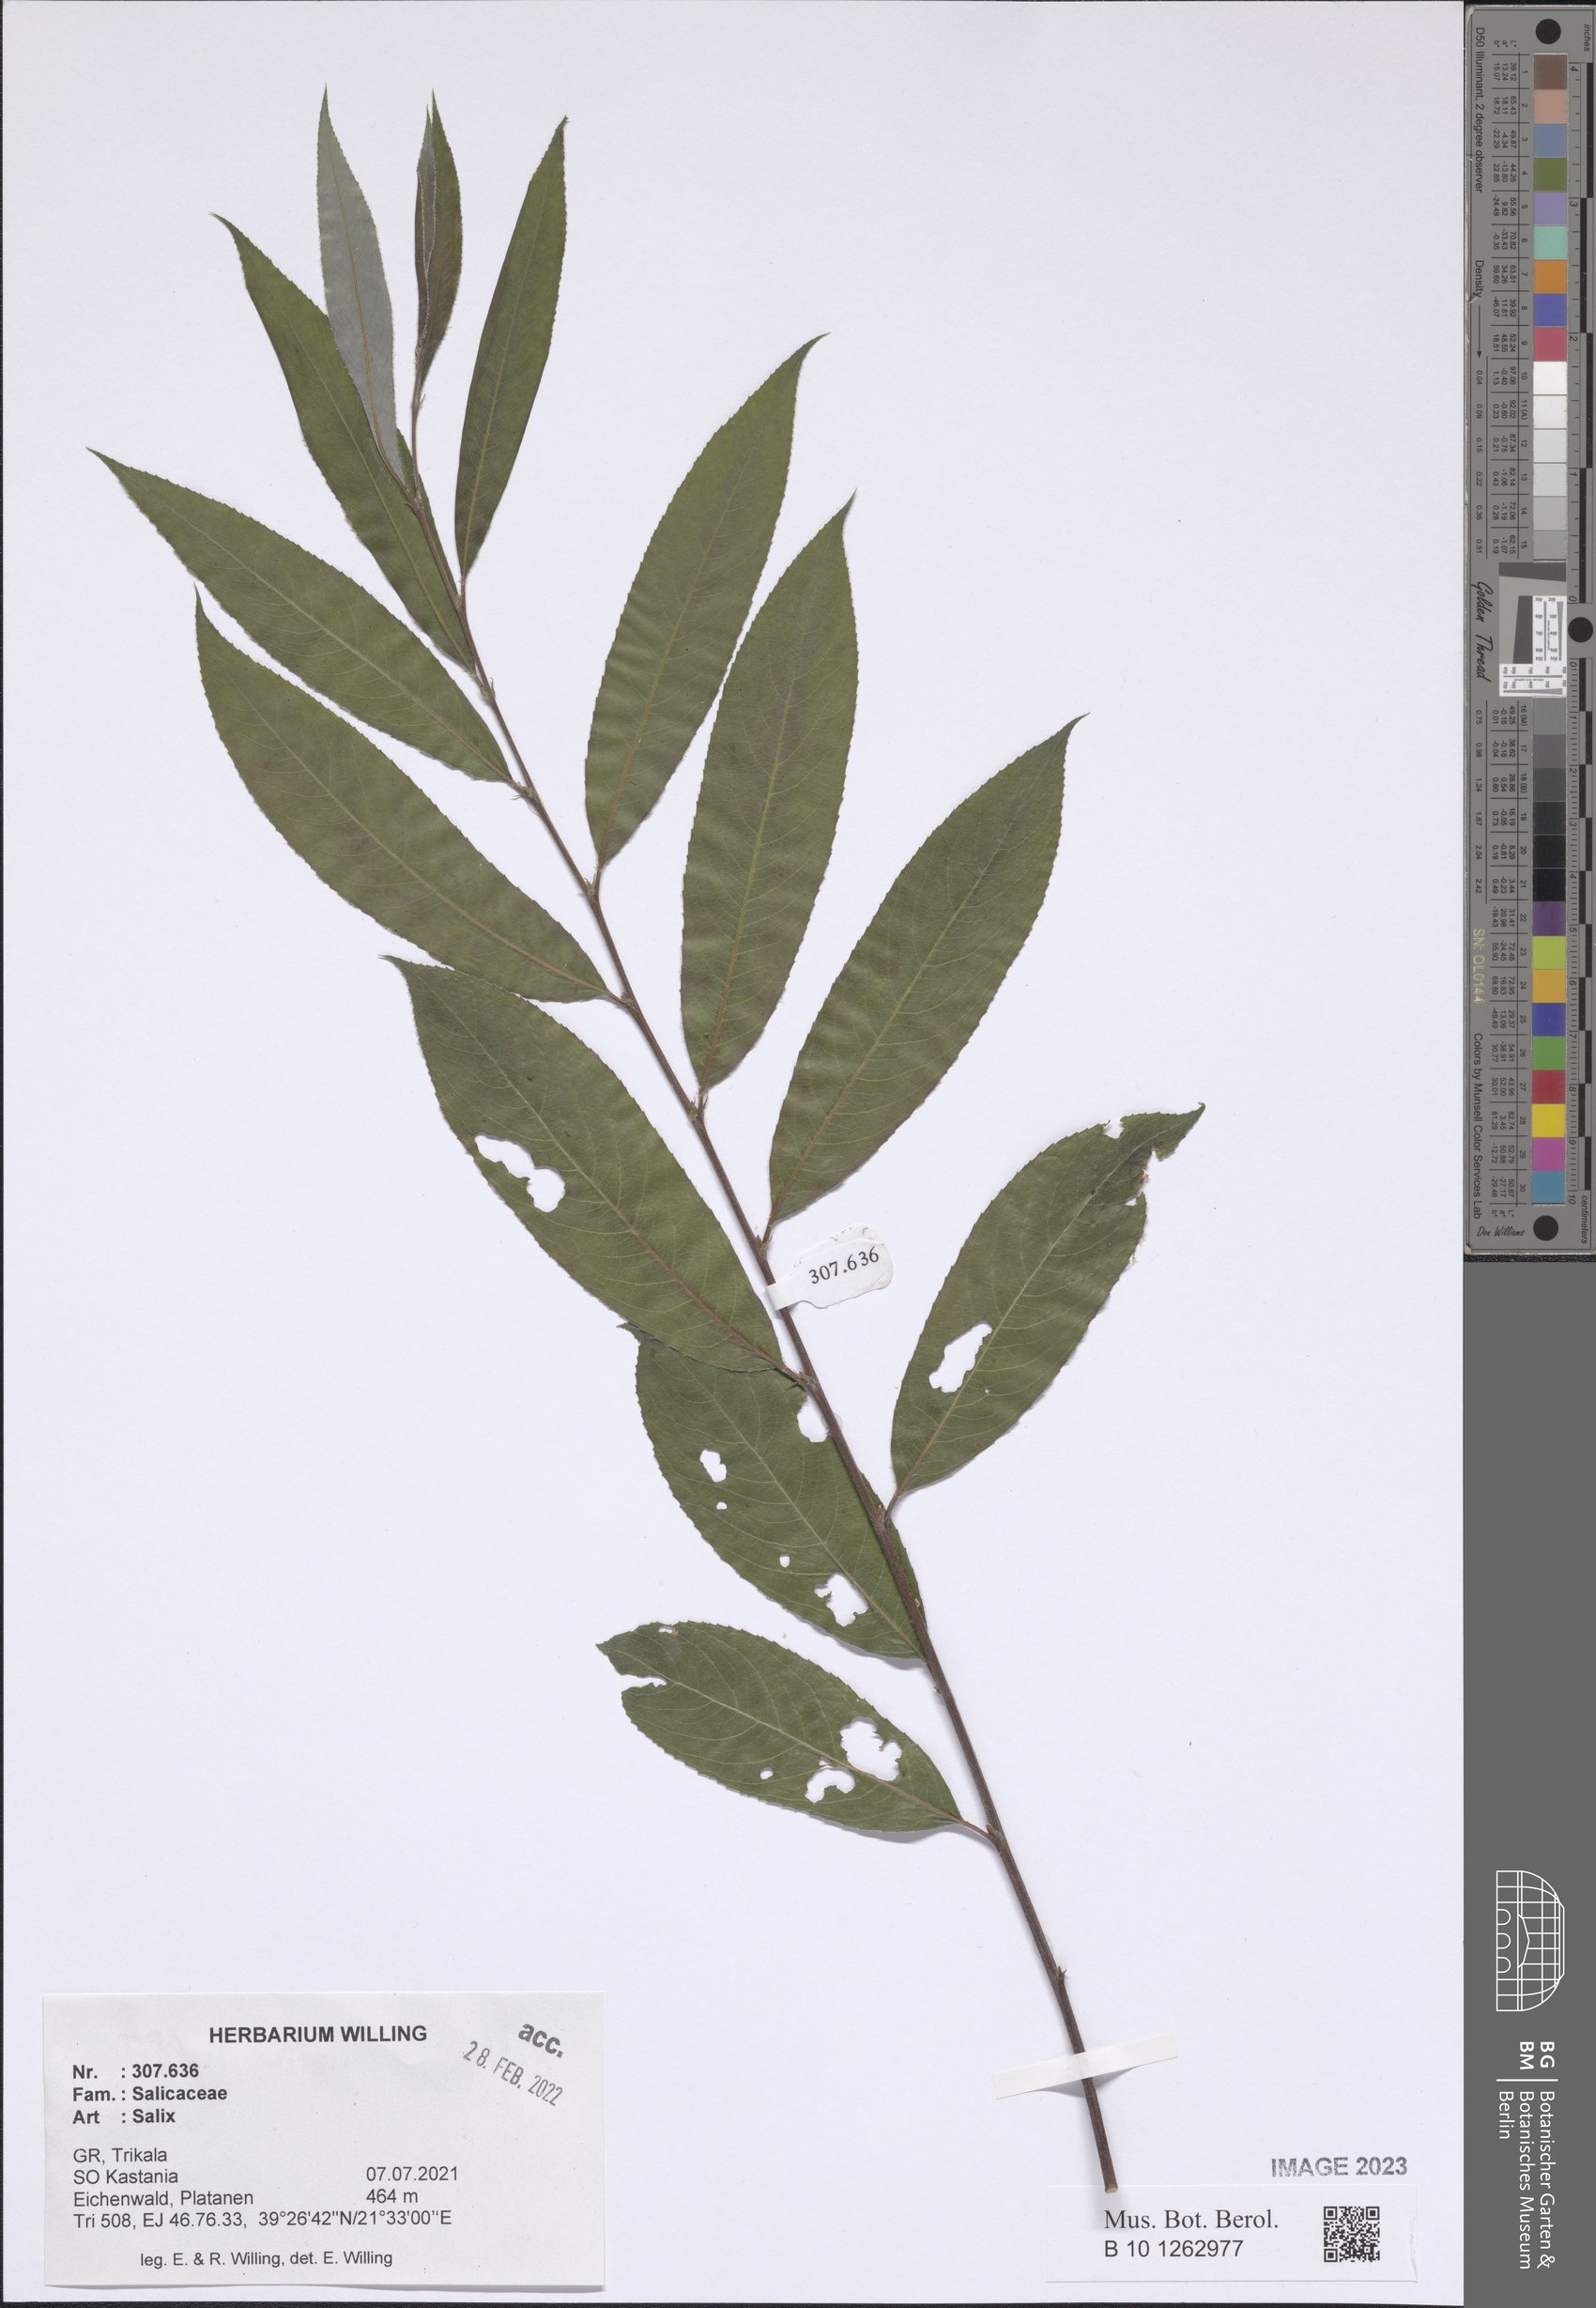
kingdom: Plantae
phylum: Tracheophyta
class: Magnoliopsida
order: Malpighiales
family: Salicaceae
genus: Salix
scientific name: Salix
